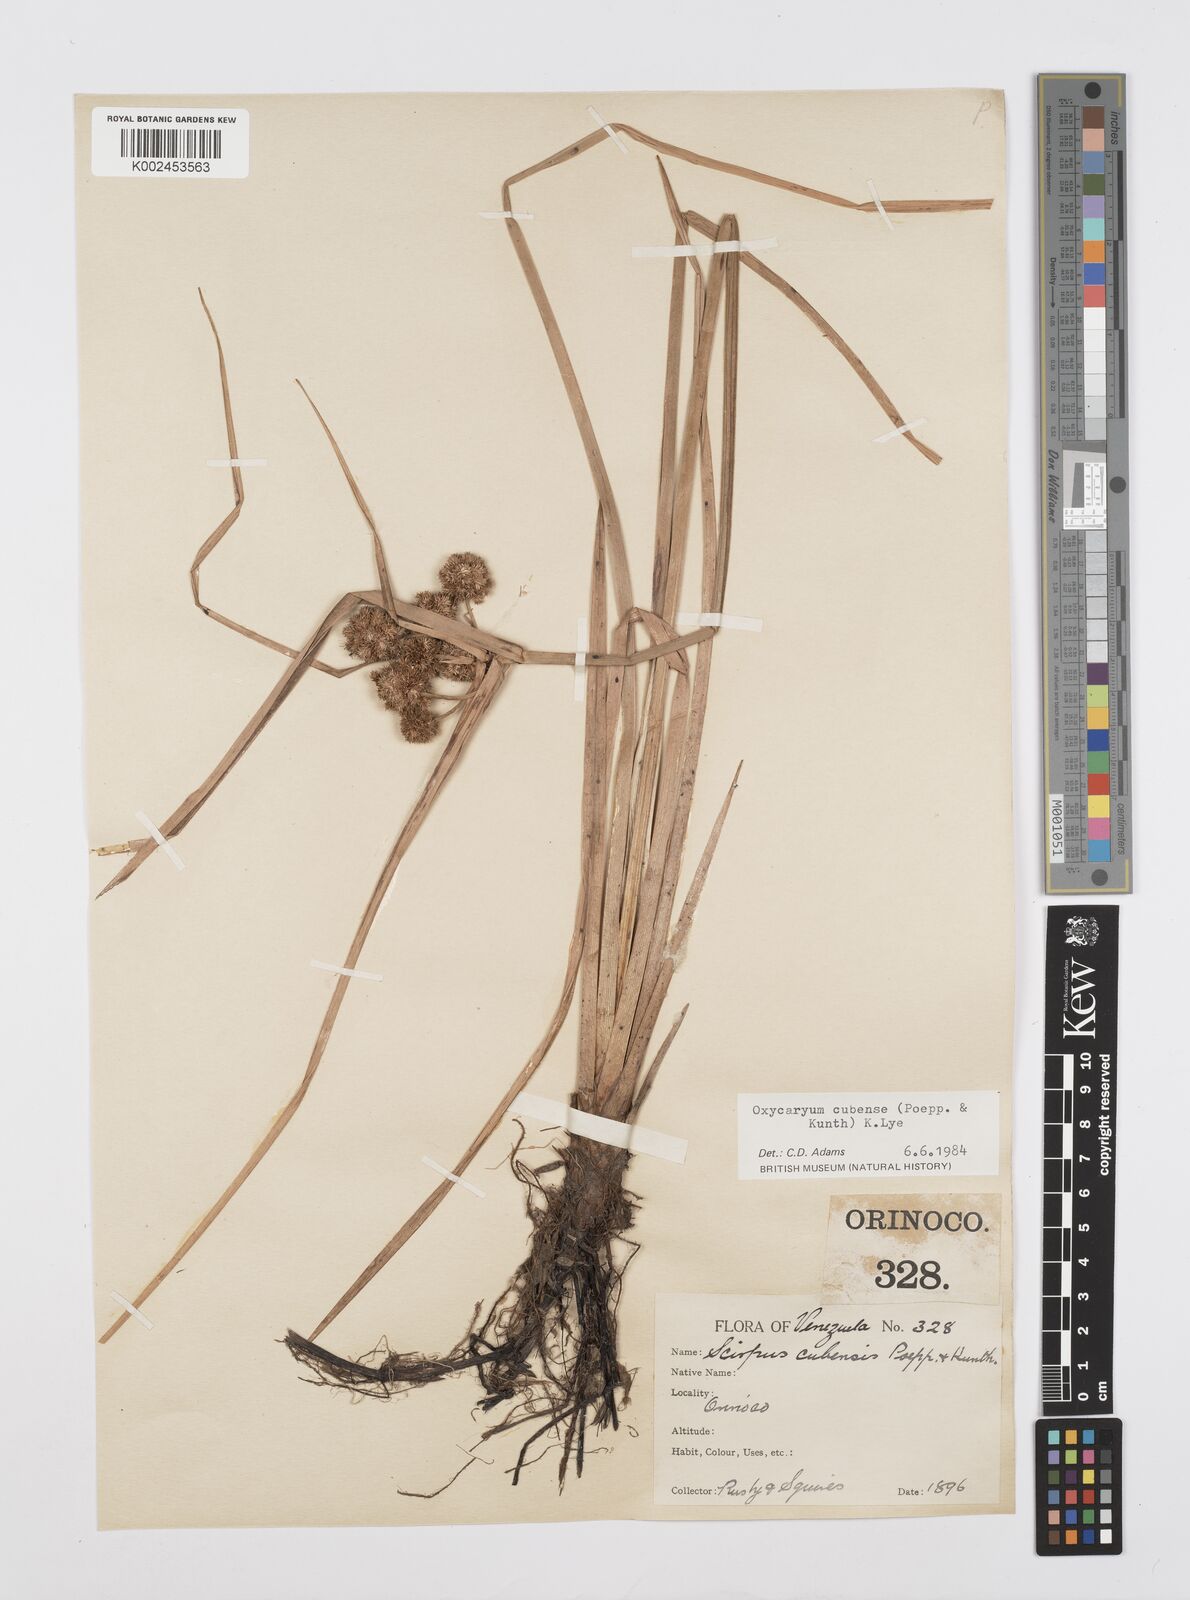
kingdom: Plantae
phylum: Tracheophyta
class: Liliopsida
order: Poales
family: Cyperaceae
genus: Cyperus
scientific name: Cyperus elegans
